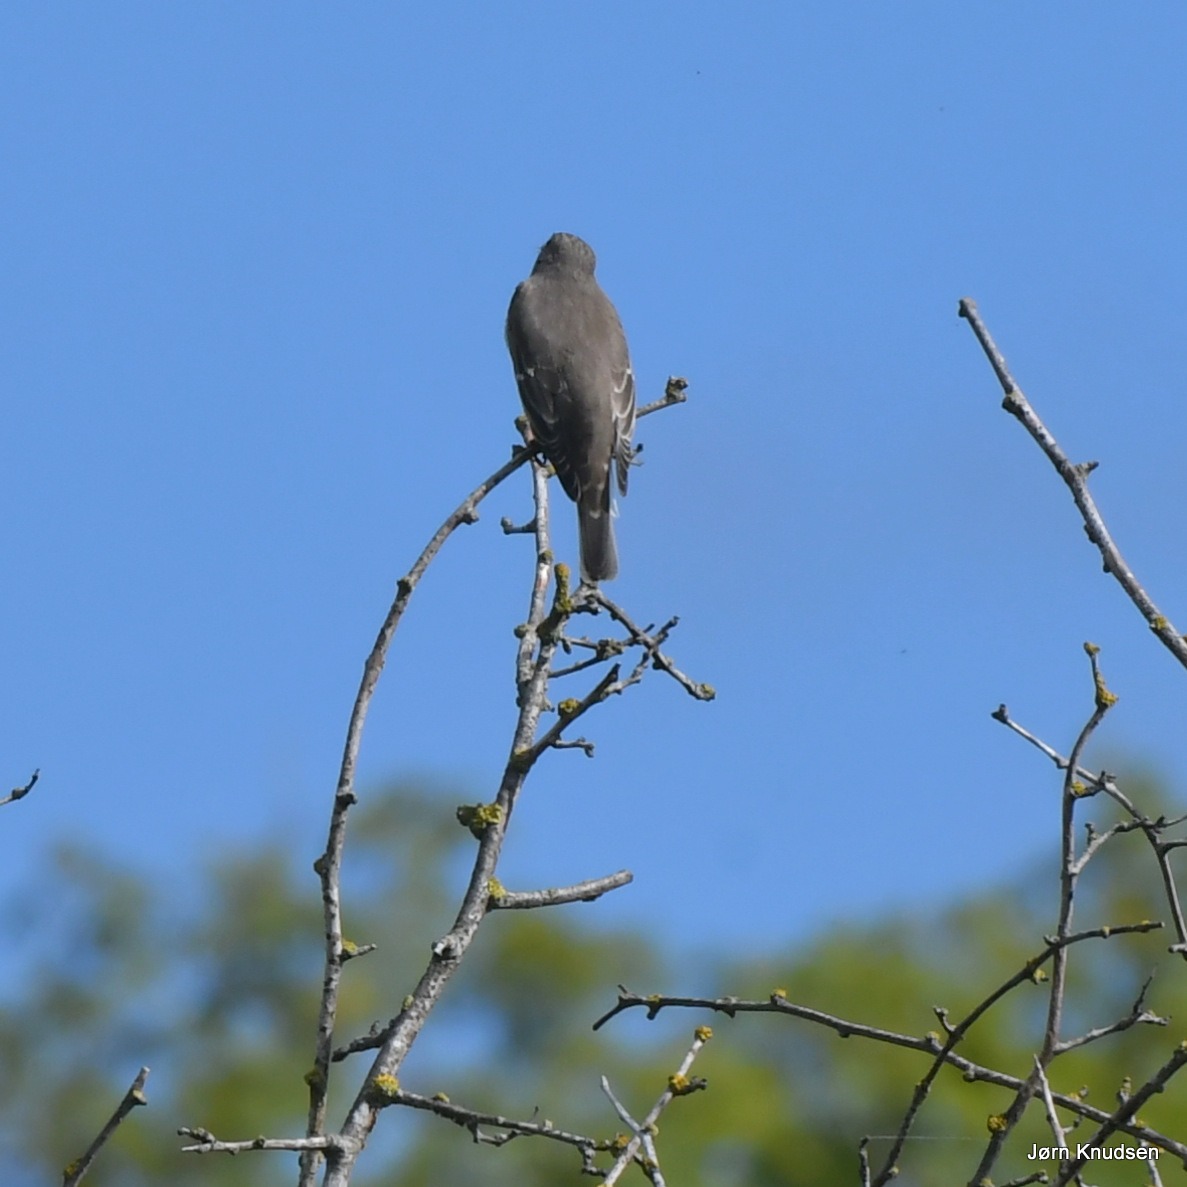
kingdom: Animalia
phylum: Chordata
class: Aves
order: Passeriformes
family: Muscicapidae
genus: Muscicapa
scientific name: Muscicapa striata
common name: Grå fluesnapper
